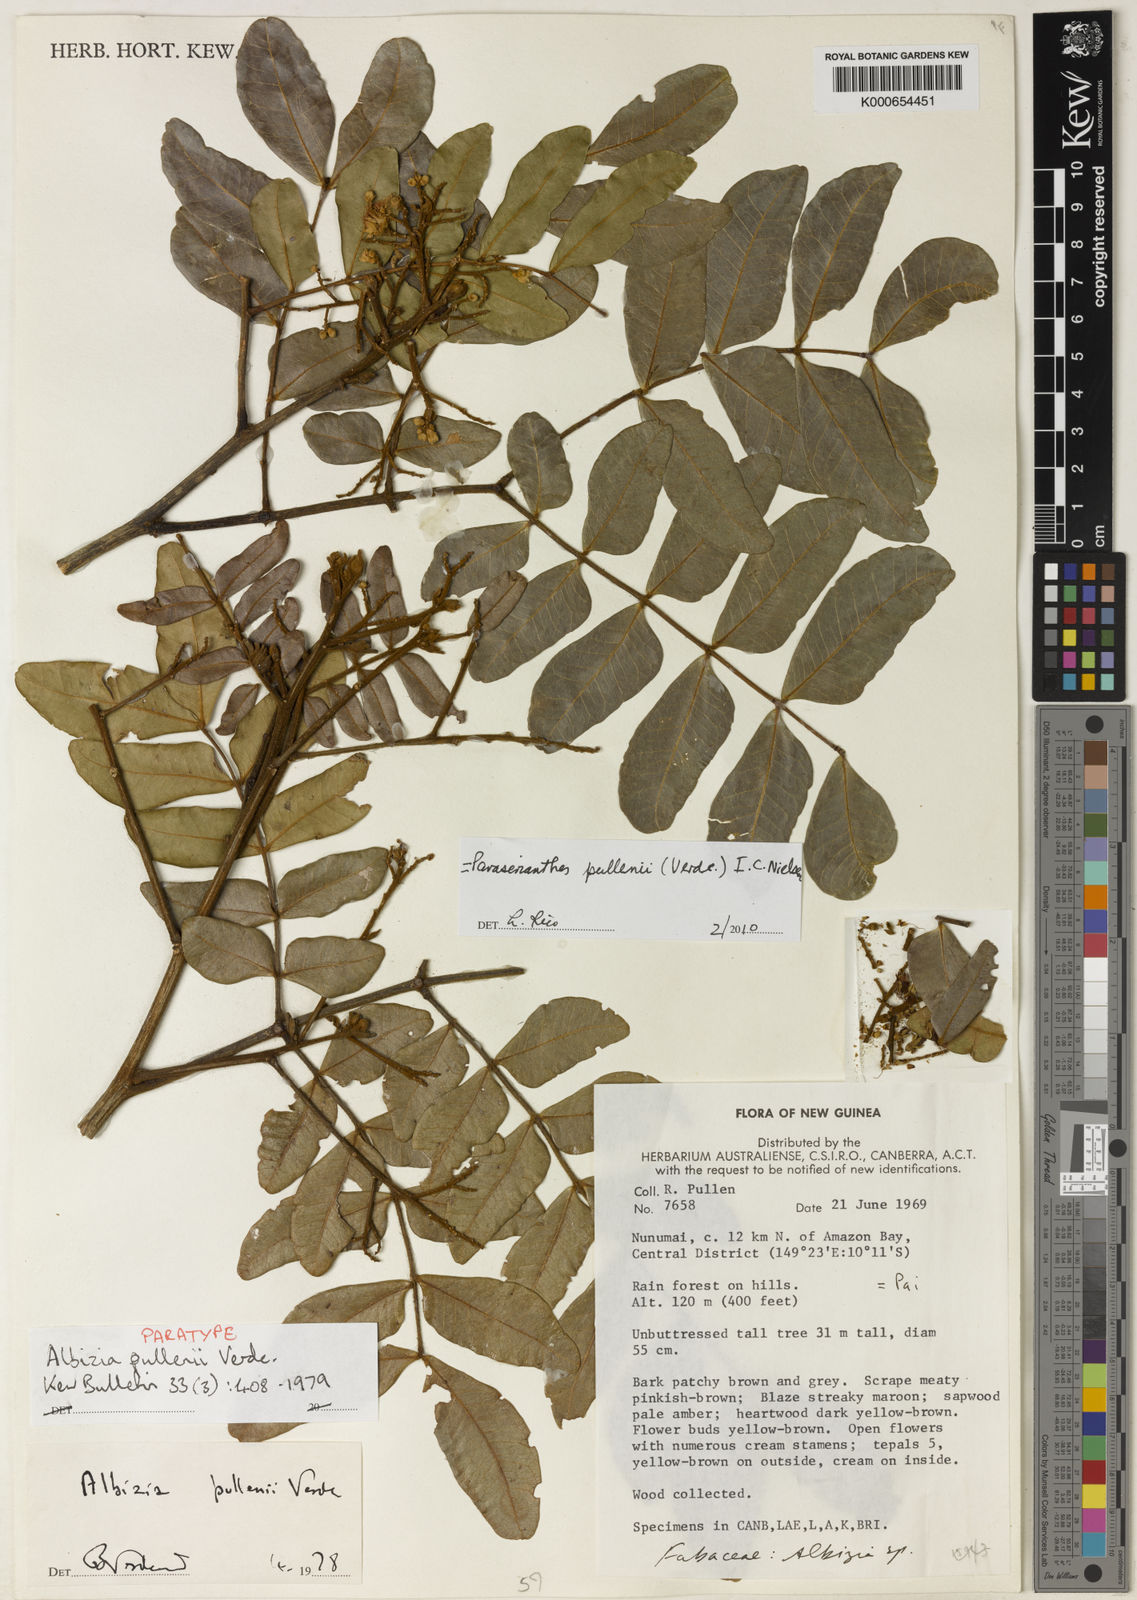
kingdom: Plantae
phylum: Tracheophyta
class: Magnoliopsida
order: Fabales
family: Fabaceae
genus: Falcataria
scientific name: Falcataria pullenii
